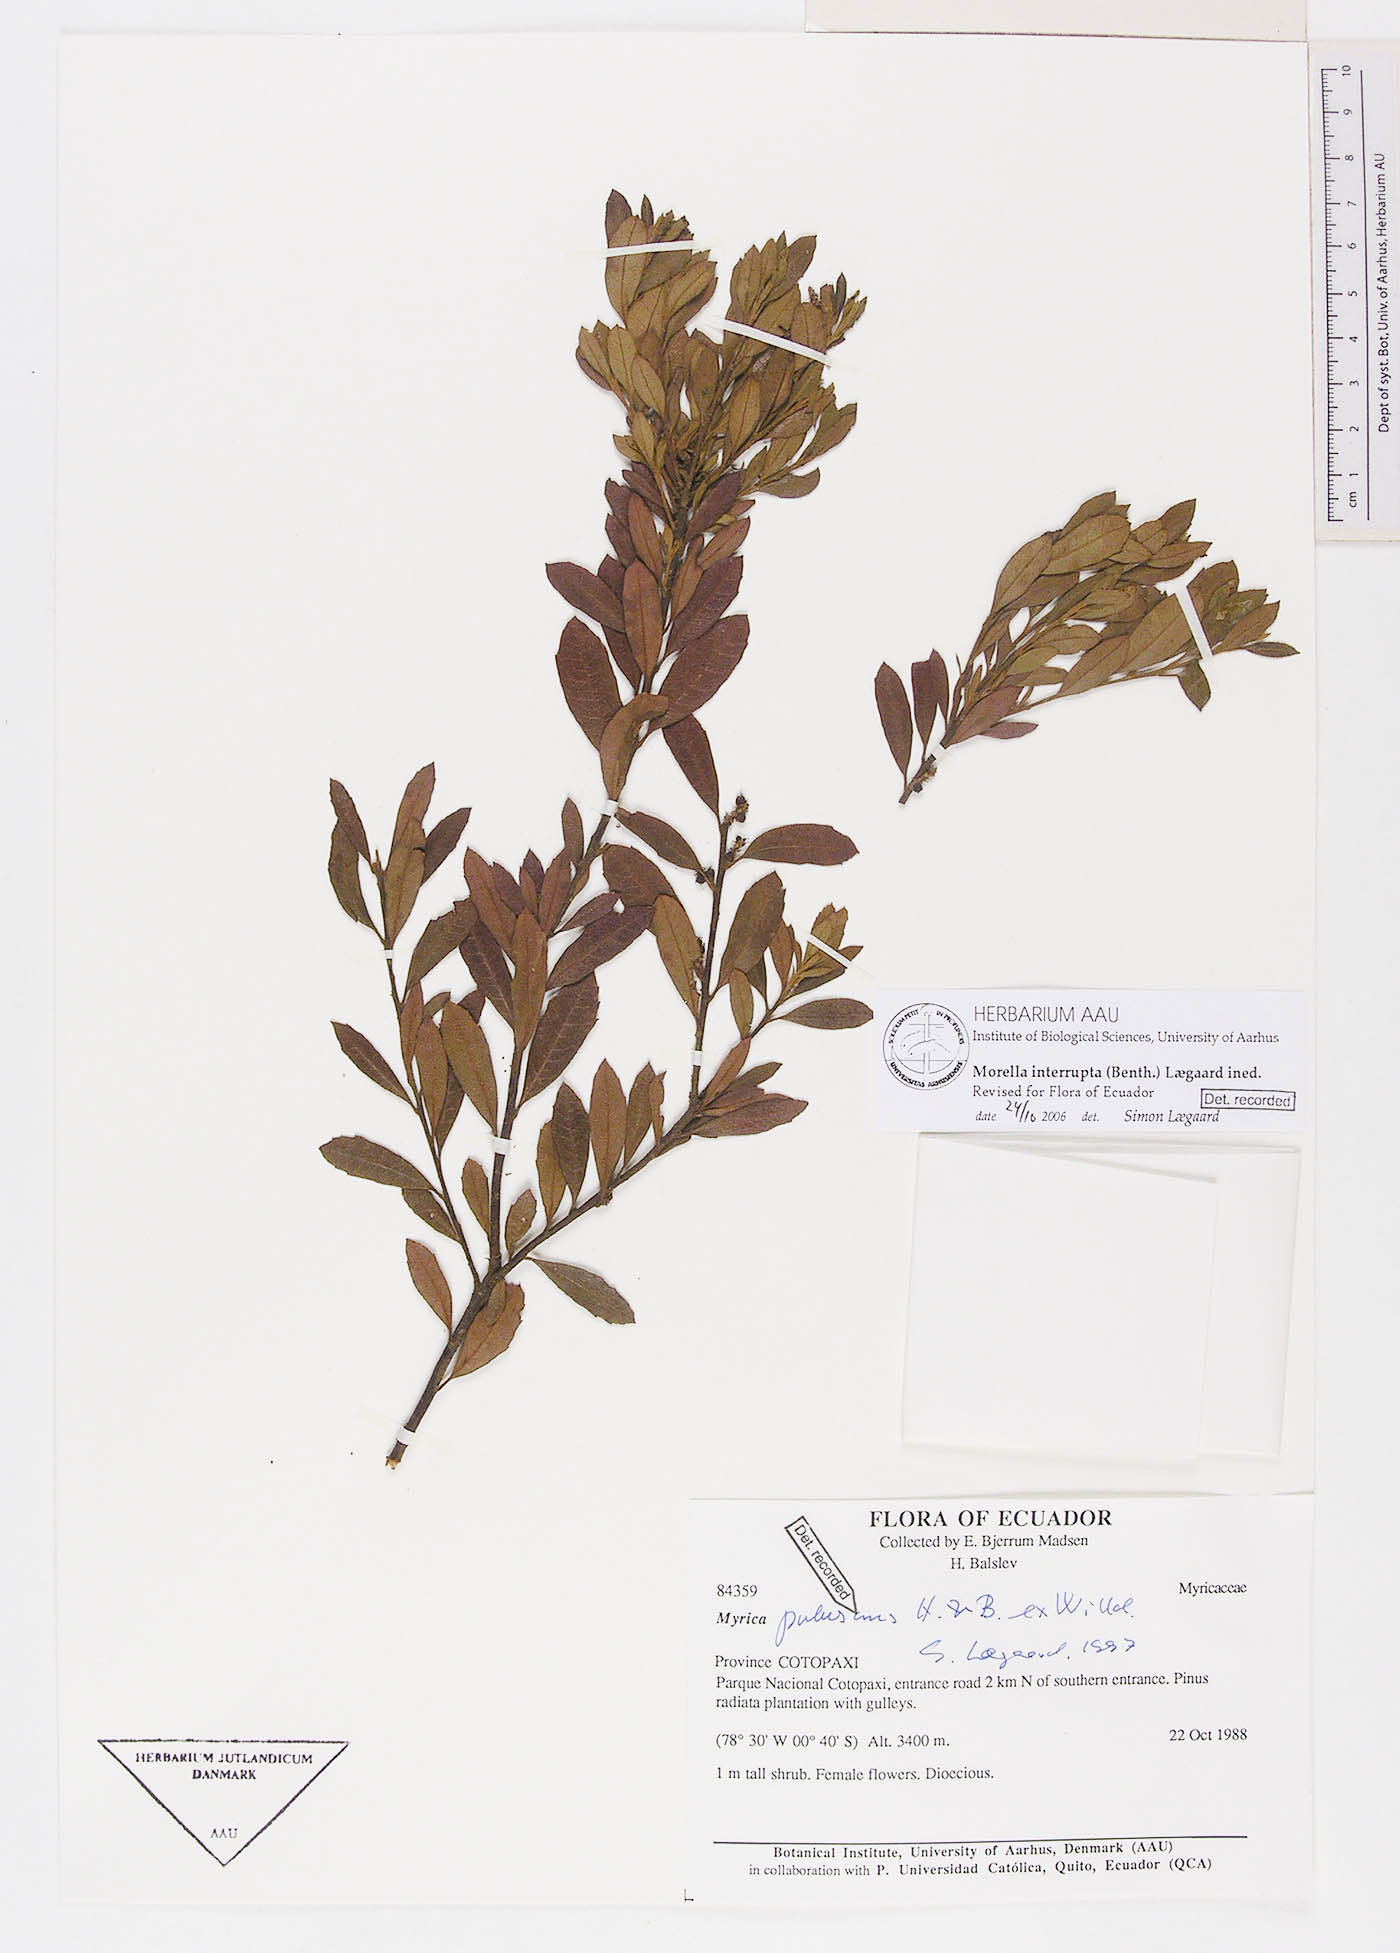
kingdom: Plantae
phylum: Tracheophyta
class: Magnoliopsida
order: Fagales
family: Myricaceae
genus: Morella
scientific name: Morella interrupta
